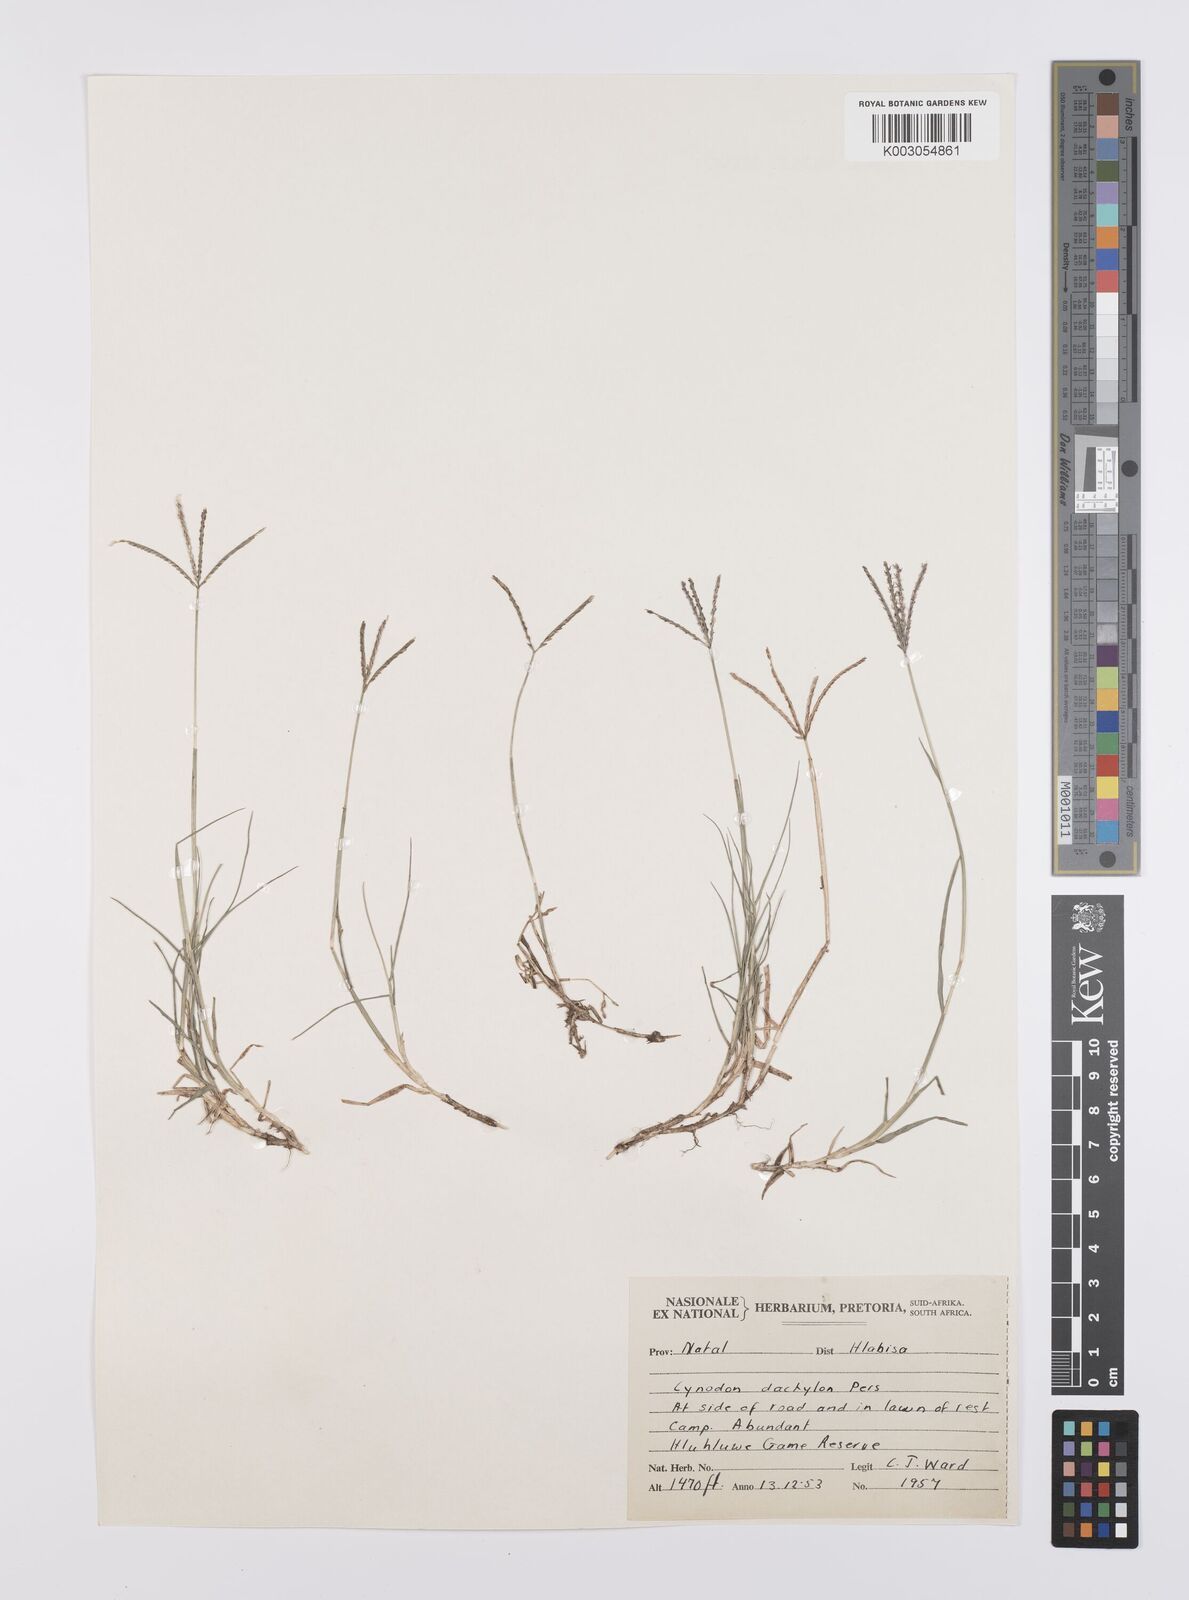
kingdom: Plantae
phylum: Tracheophyta
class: Liliopsida
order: Poales
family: Poaceae
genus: Cynodon
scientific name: Cynodon dactylon
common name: Bermuda grass
